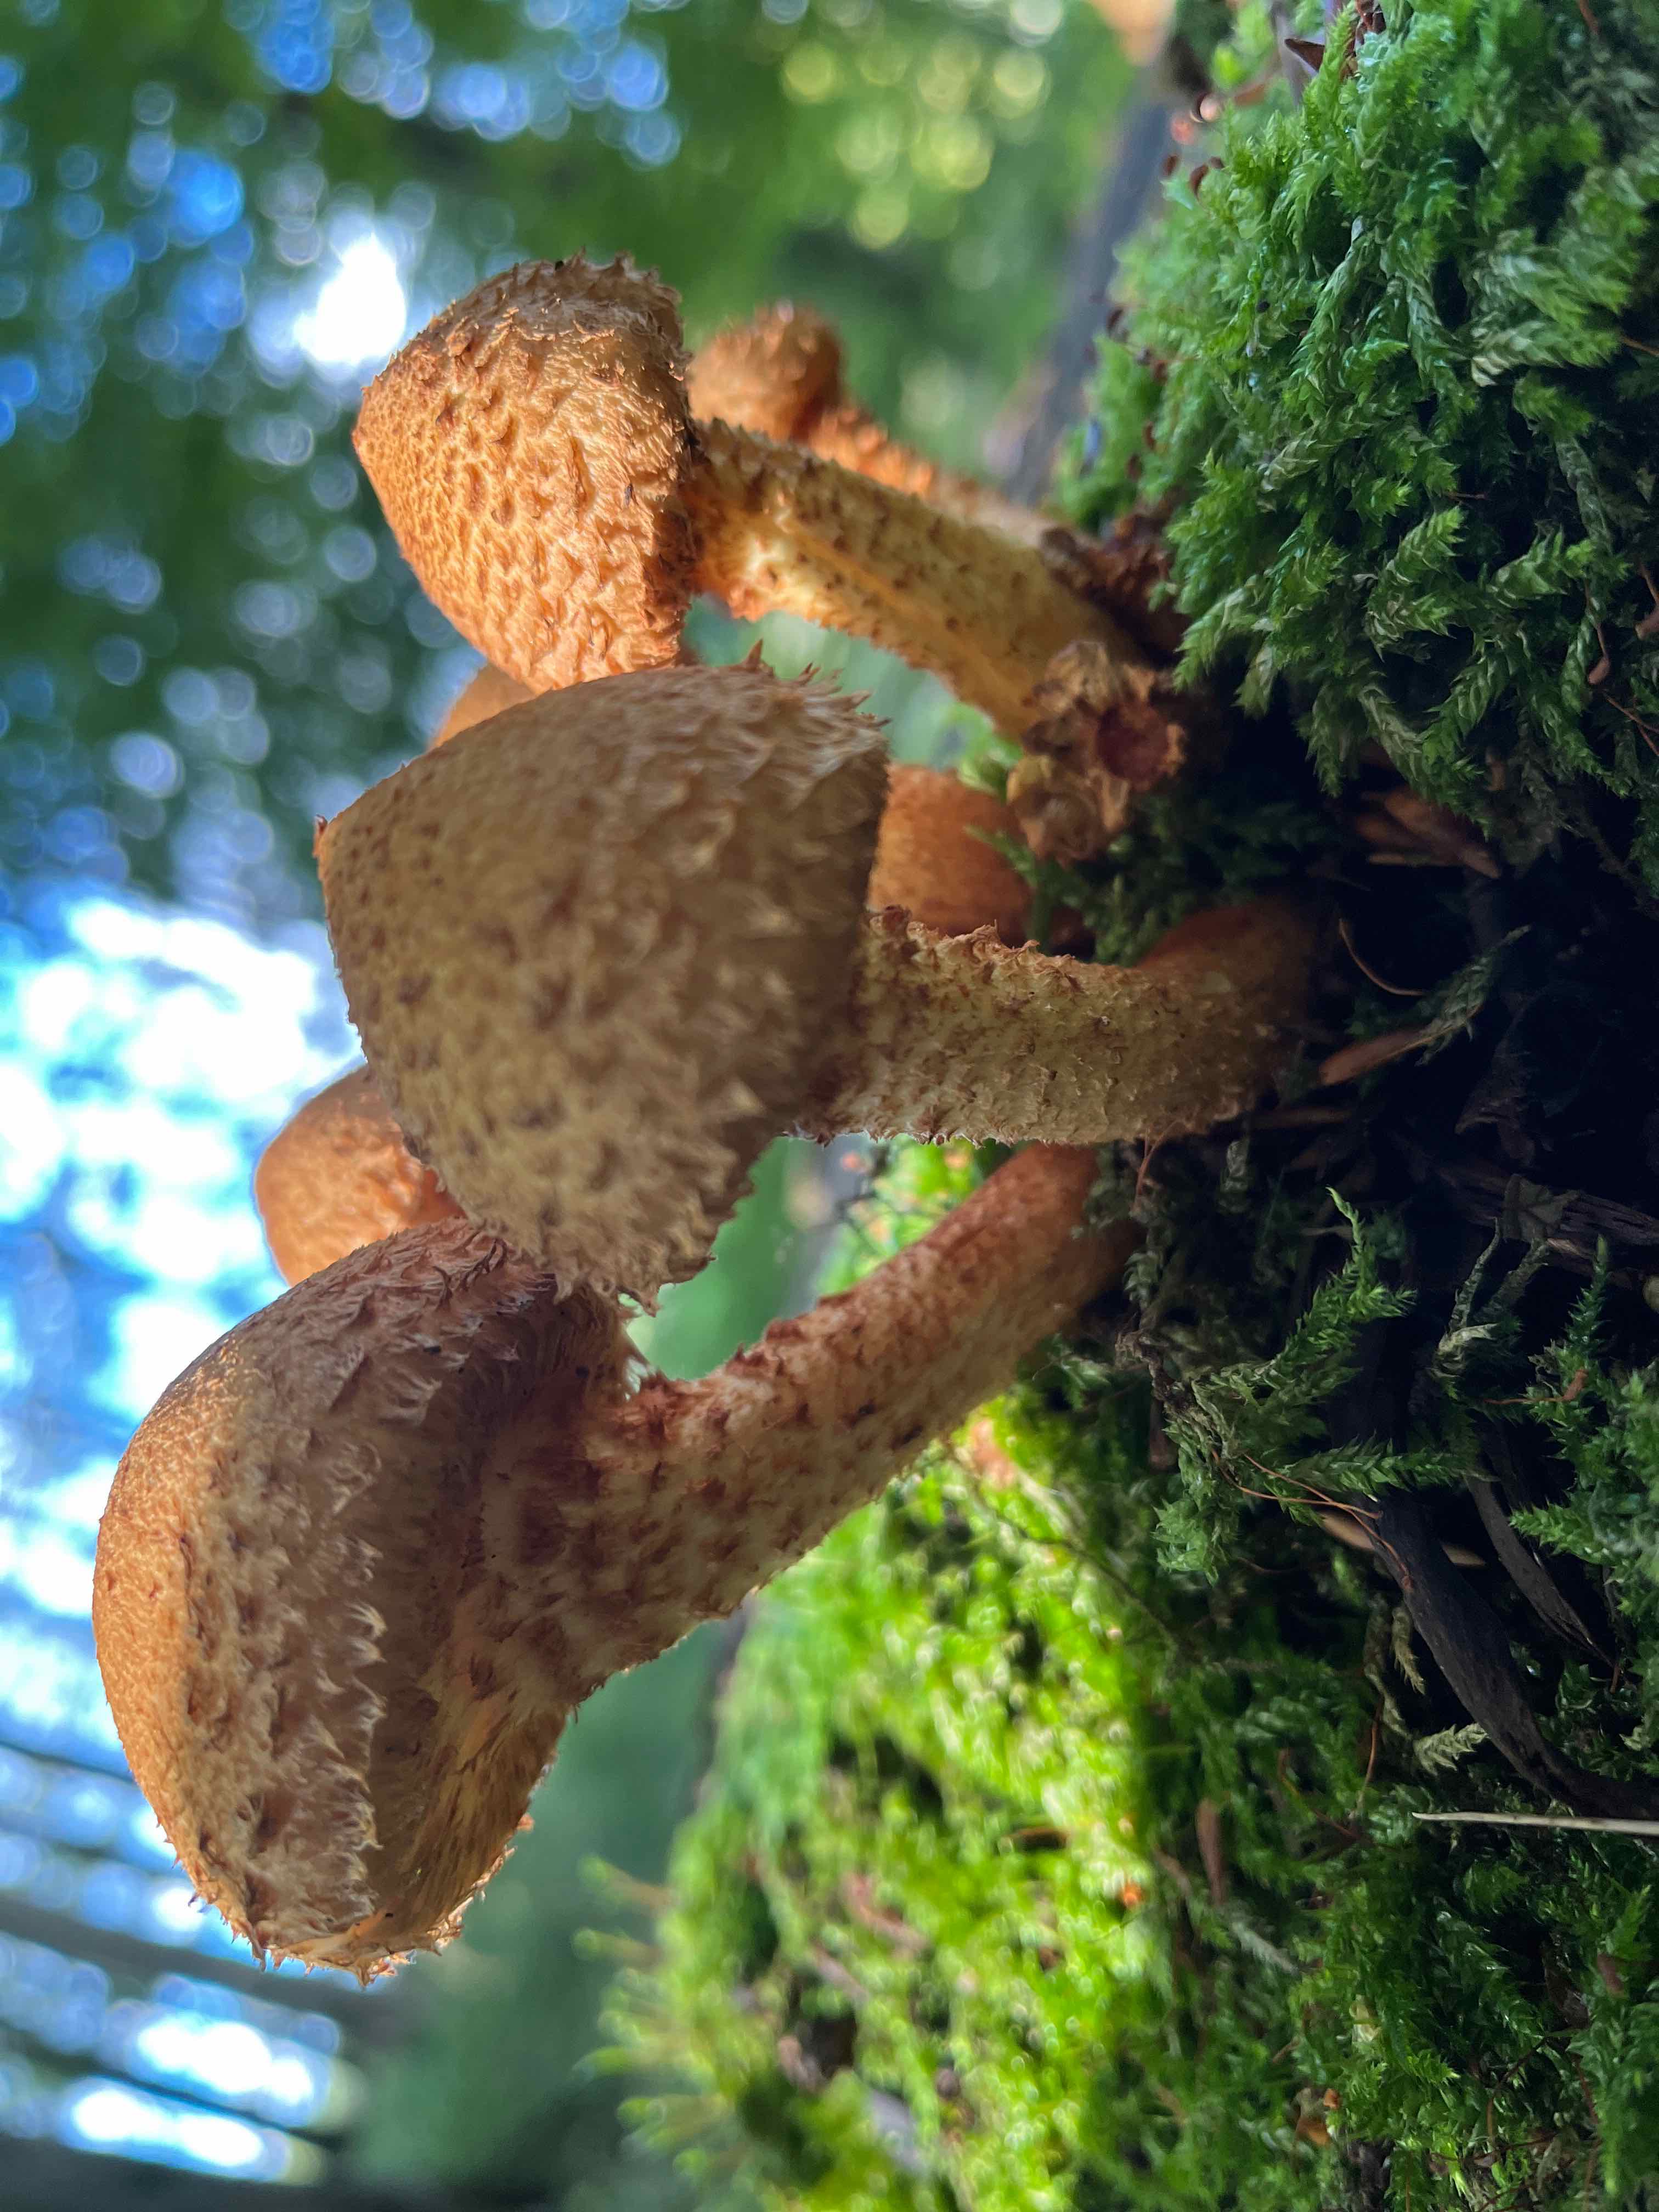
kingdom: Fungi
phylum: Basidiomycota
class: Agaricomycetes
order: Agaricales
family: Strophariaceae
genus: Pholiota
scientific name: Pholiota squarrosa
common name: krumskællet skælhat
